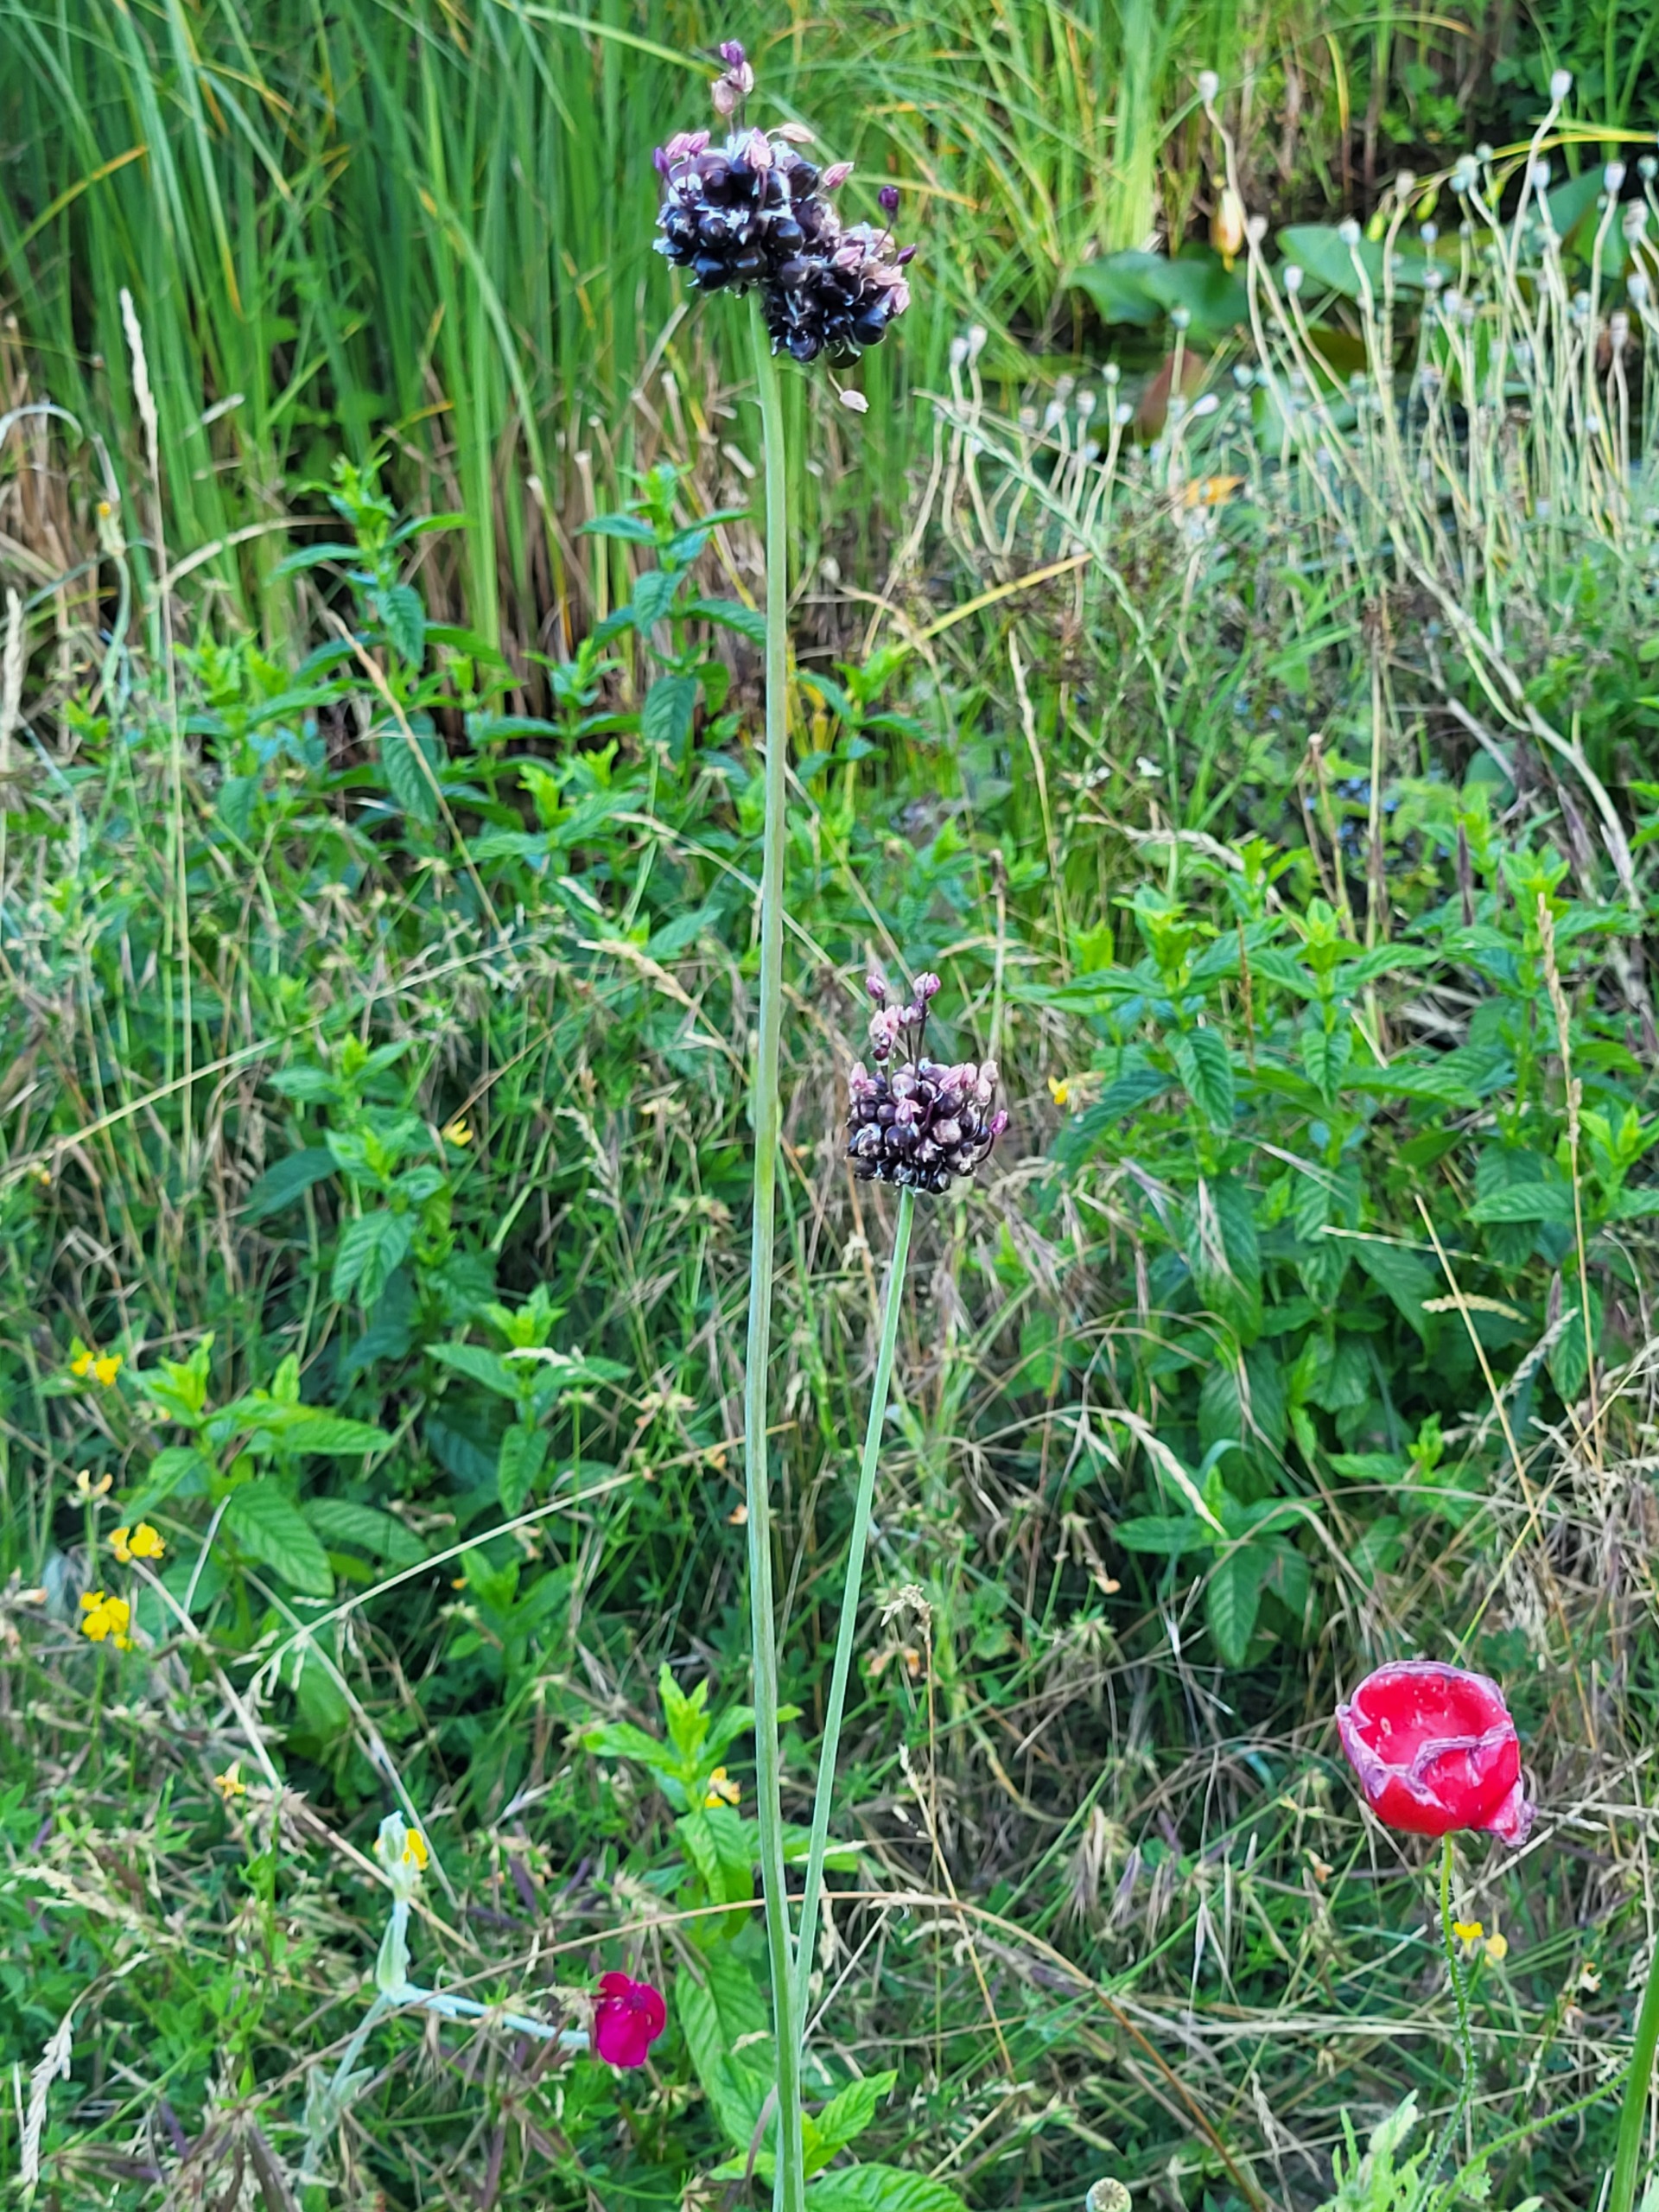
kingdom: Plantae
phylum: Tracheophyta
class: Liliopsida
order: Asparagales
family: Amaryllidaceae
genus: Allium
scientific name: Allium scorodoprasum
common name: Skov-løg
